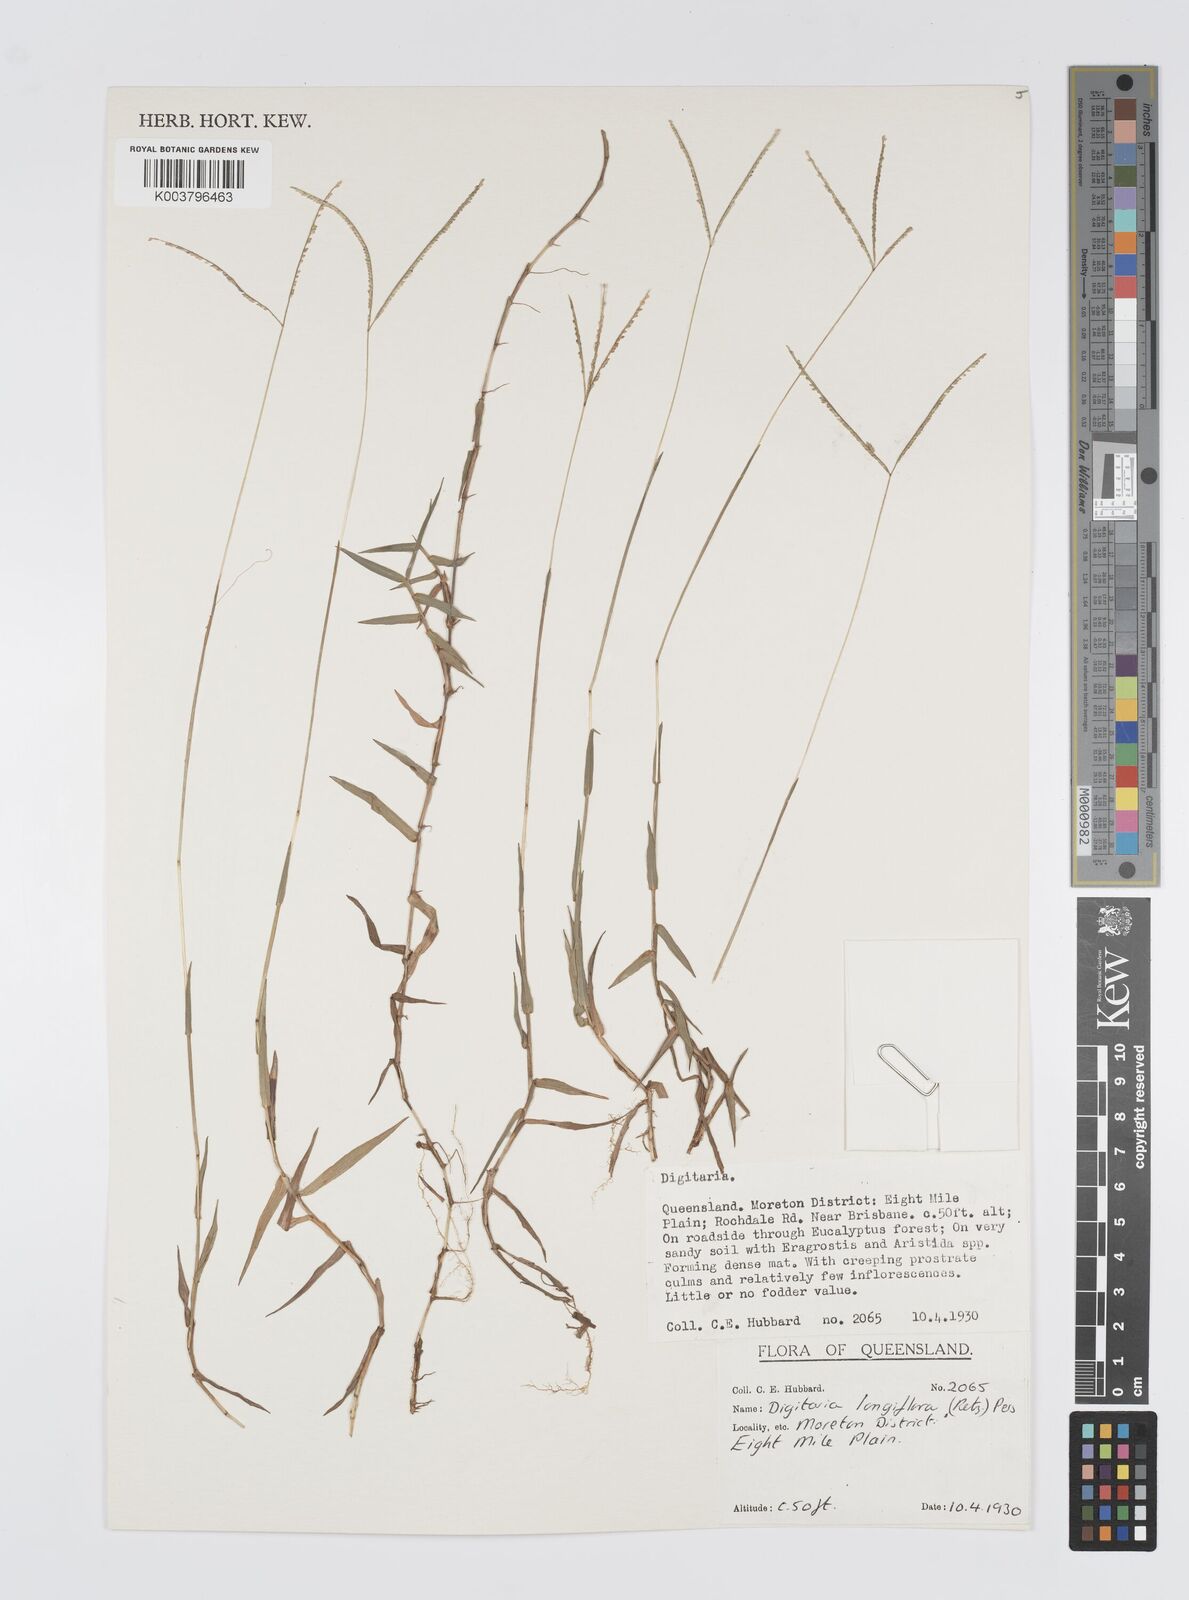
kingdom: Plantae
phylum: Tracheophyta
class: Liliopsida
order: Poales
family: Poaceae
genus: Digitaria
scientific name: Digitaria longiflora
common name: Wire crabgrass
